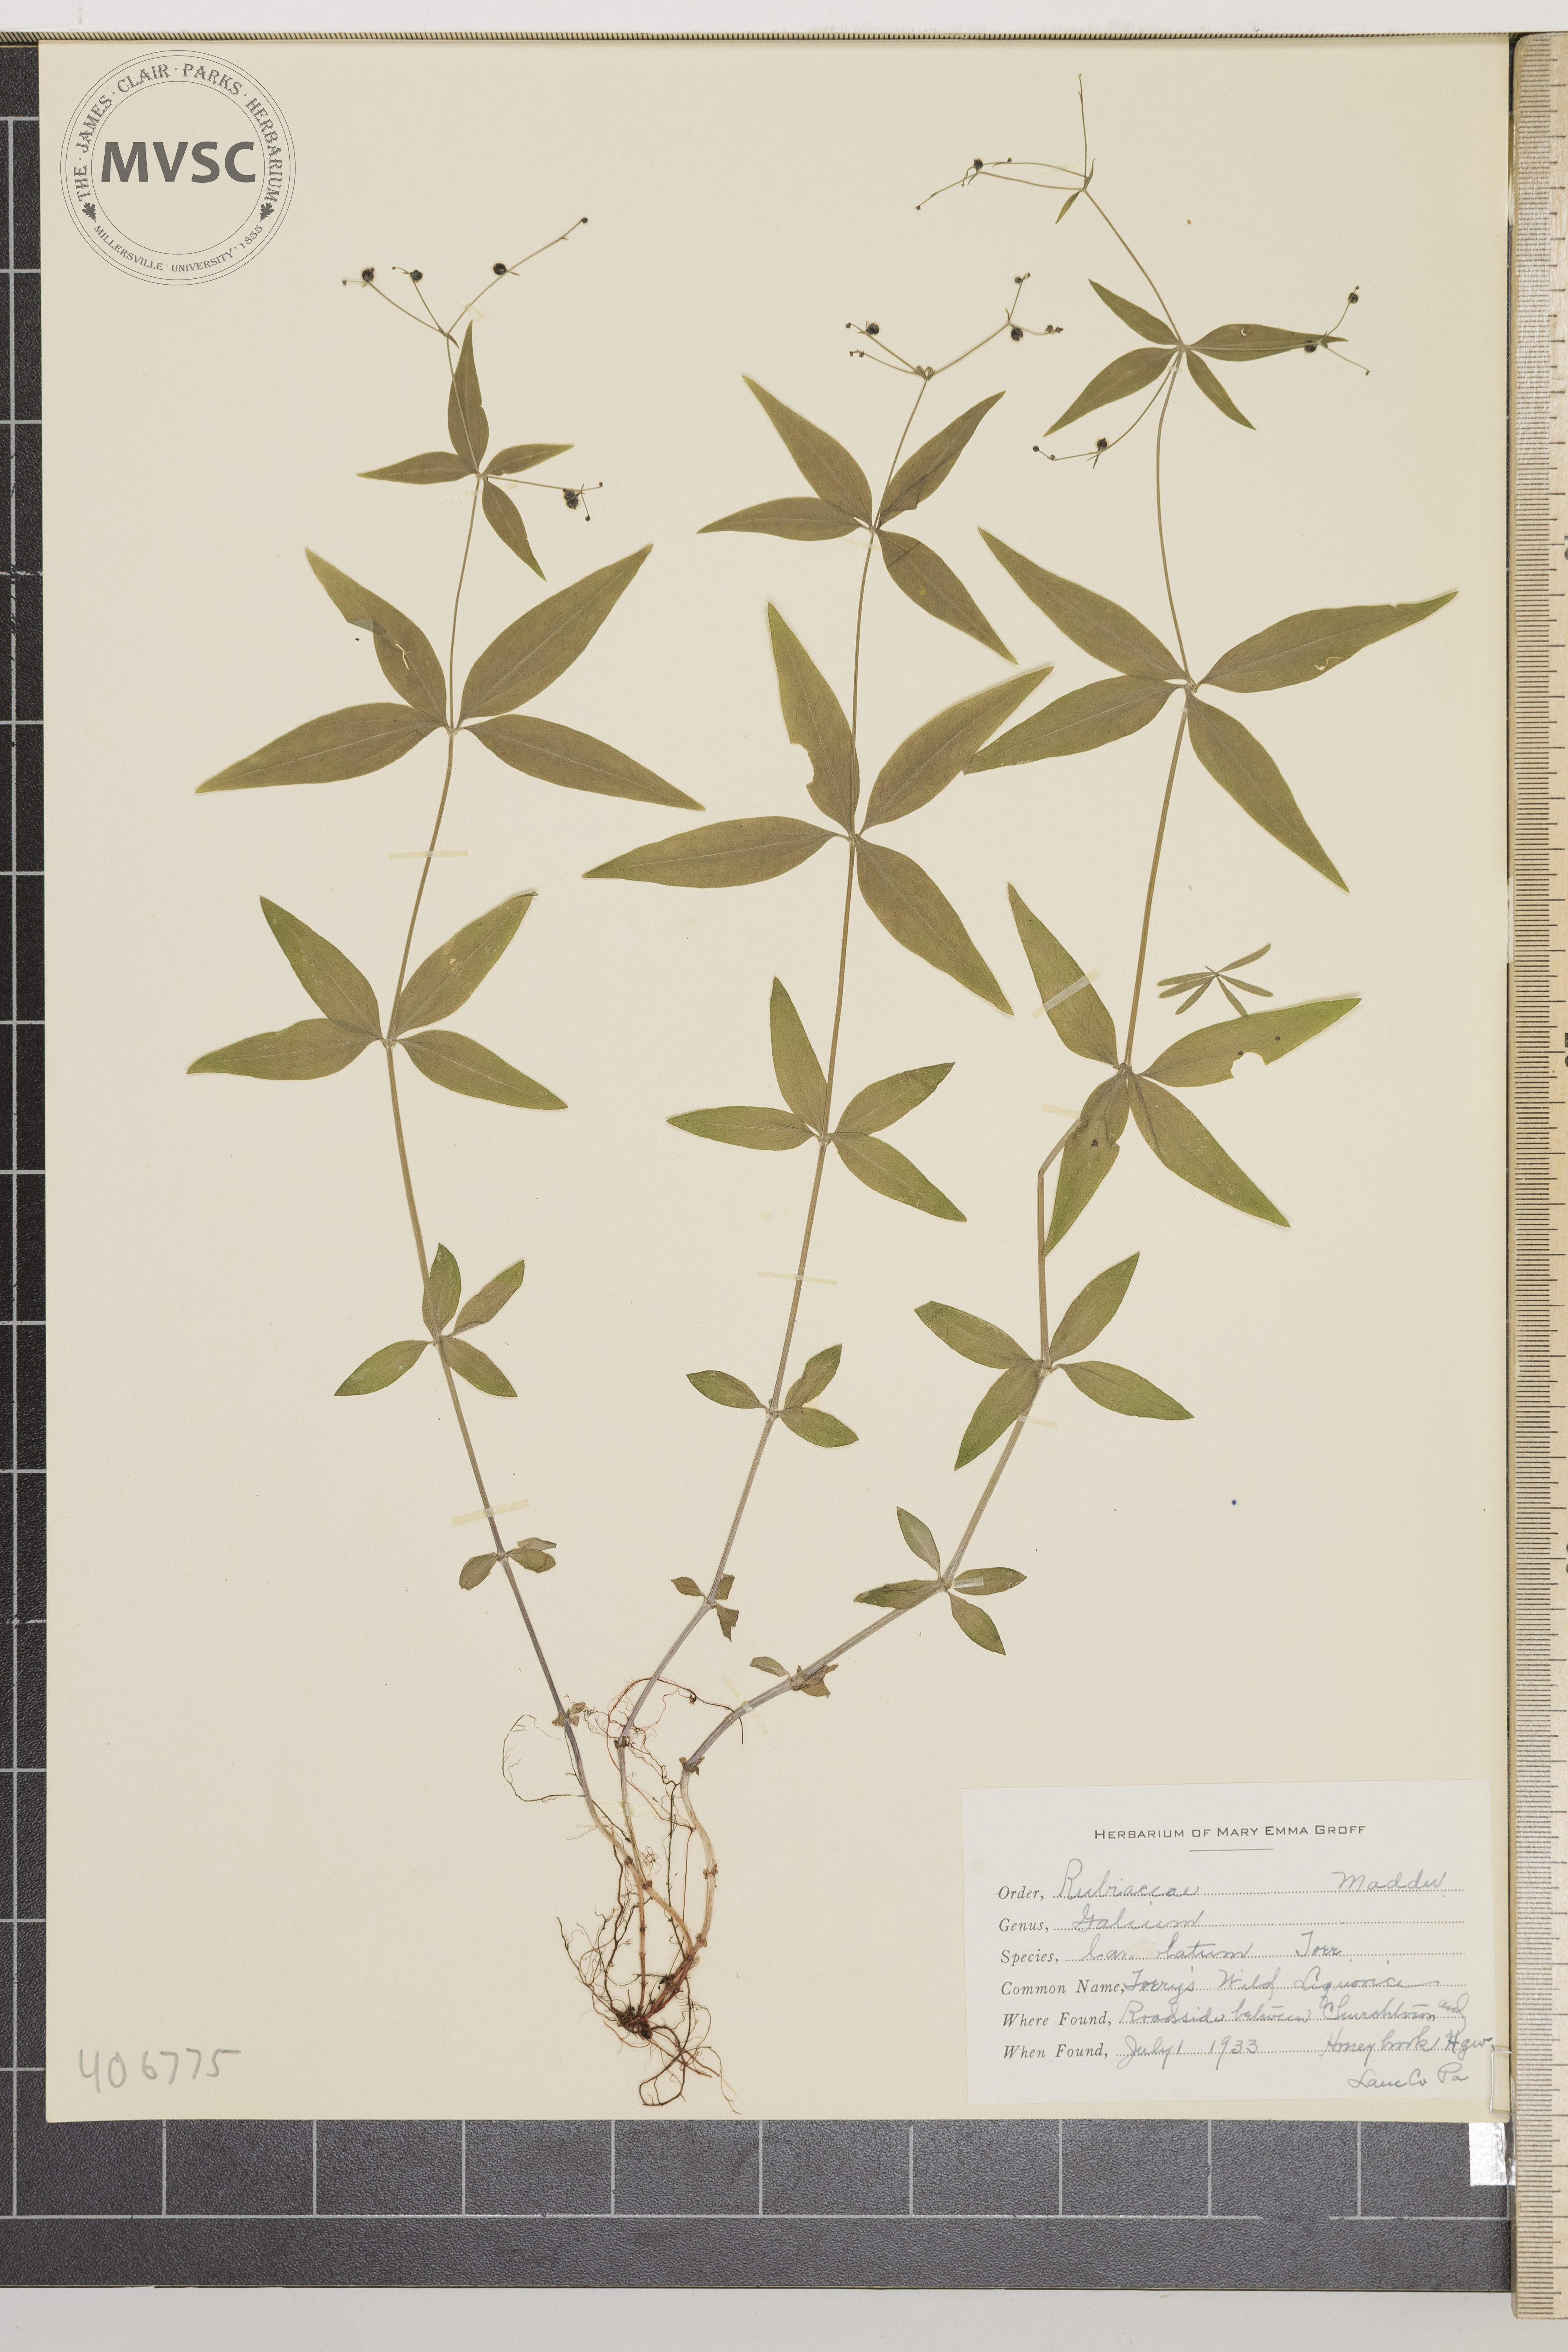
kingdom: Plantae
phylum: Tracheophyta
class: Magnoliopsida
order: Gentianales
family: Rubiaceae
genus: Galium
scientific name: Galium lanceolatum
